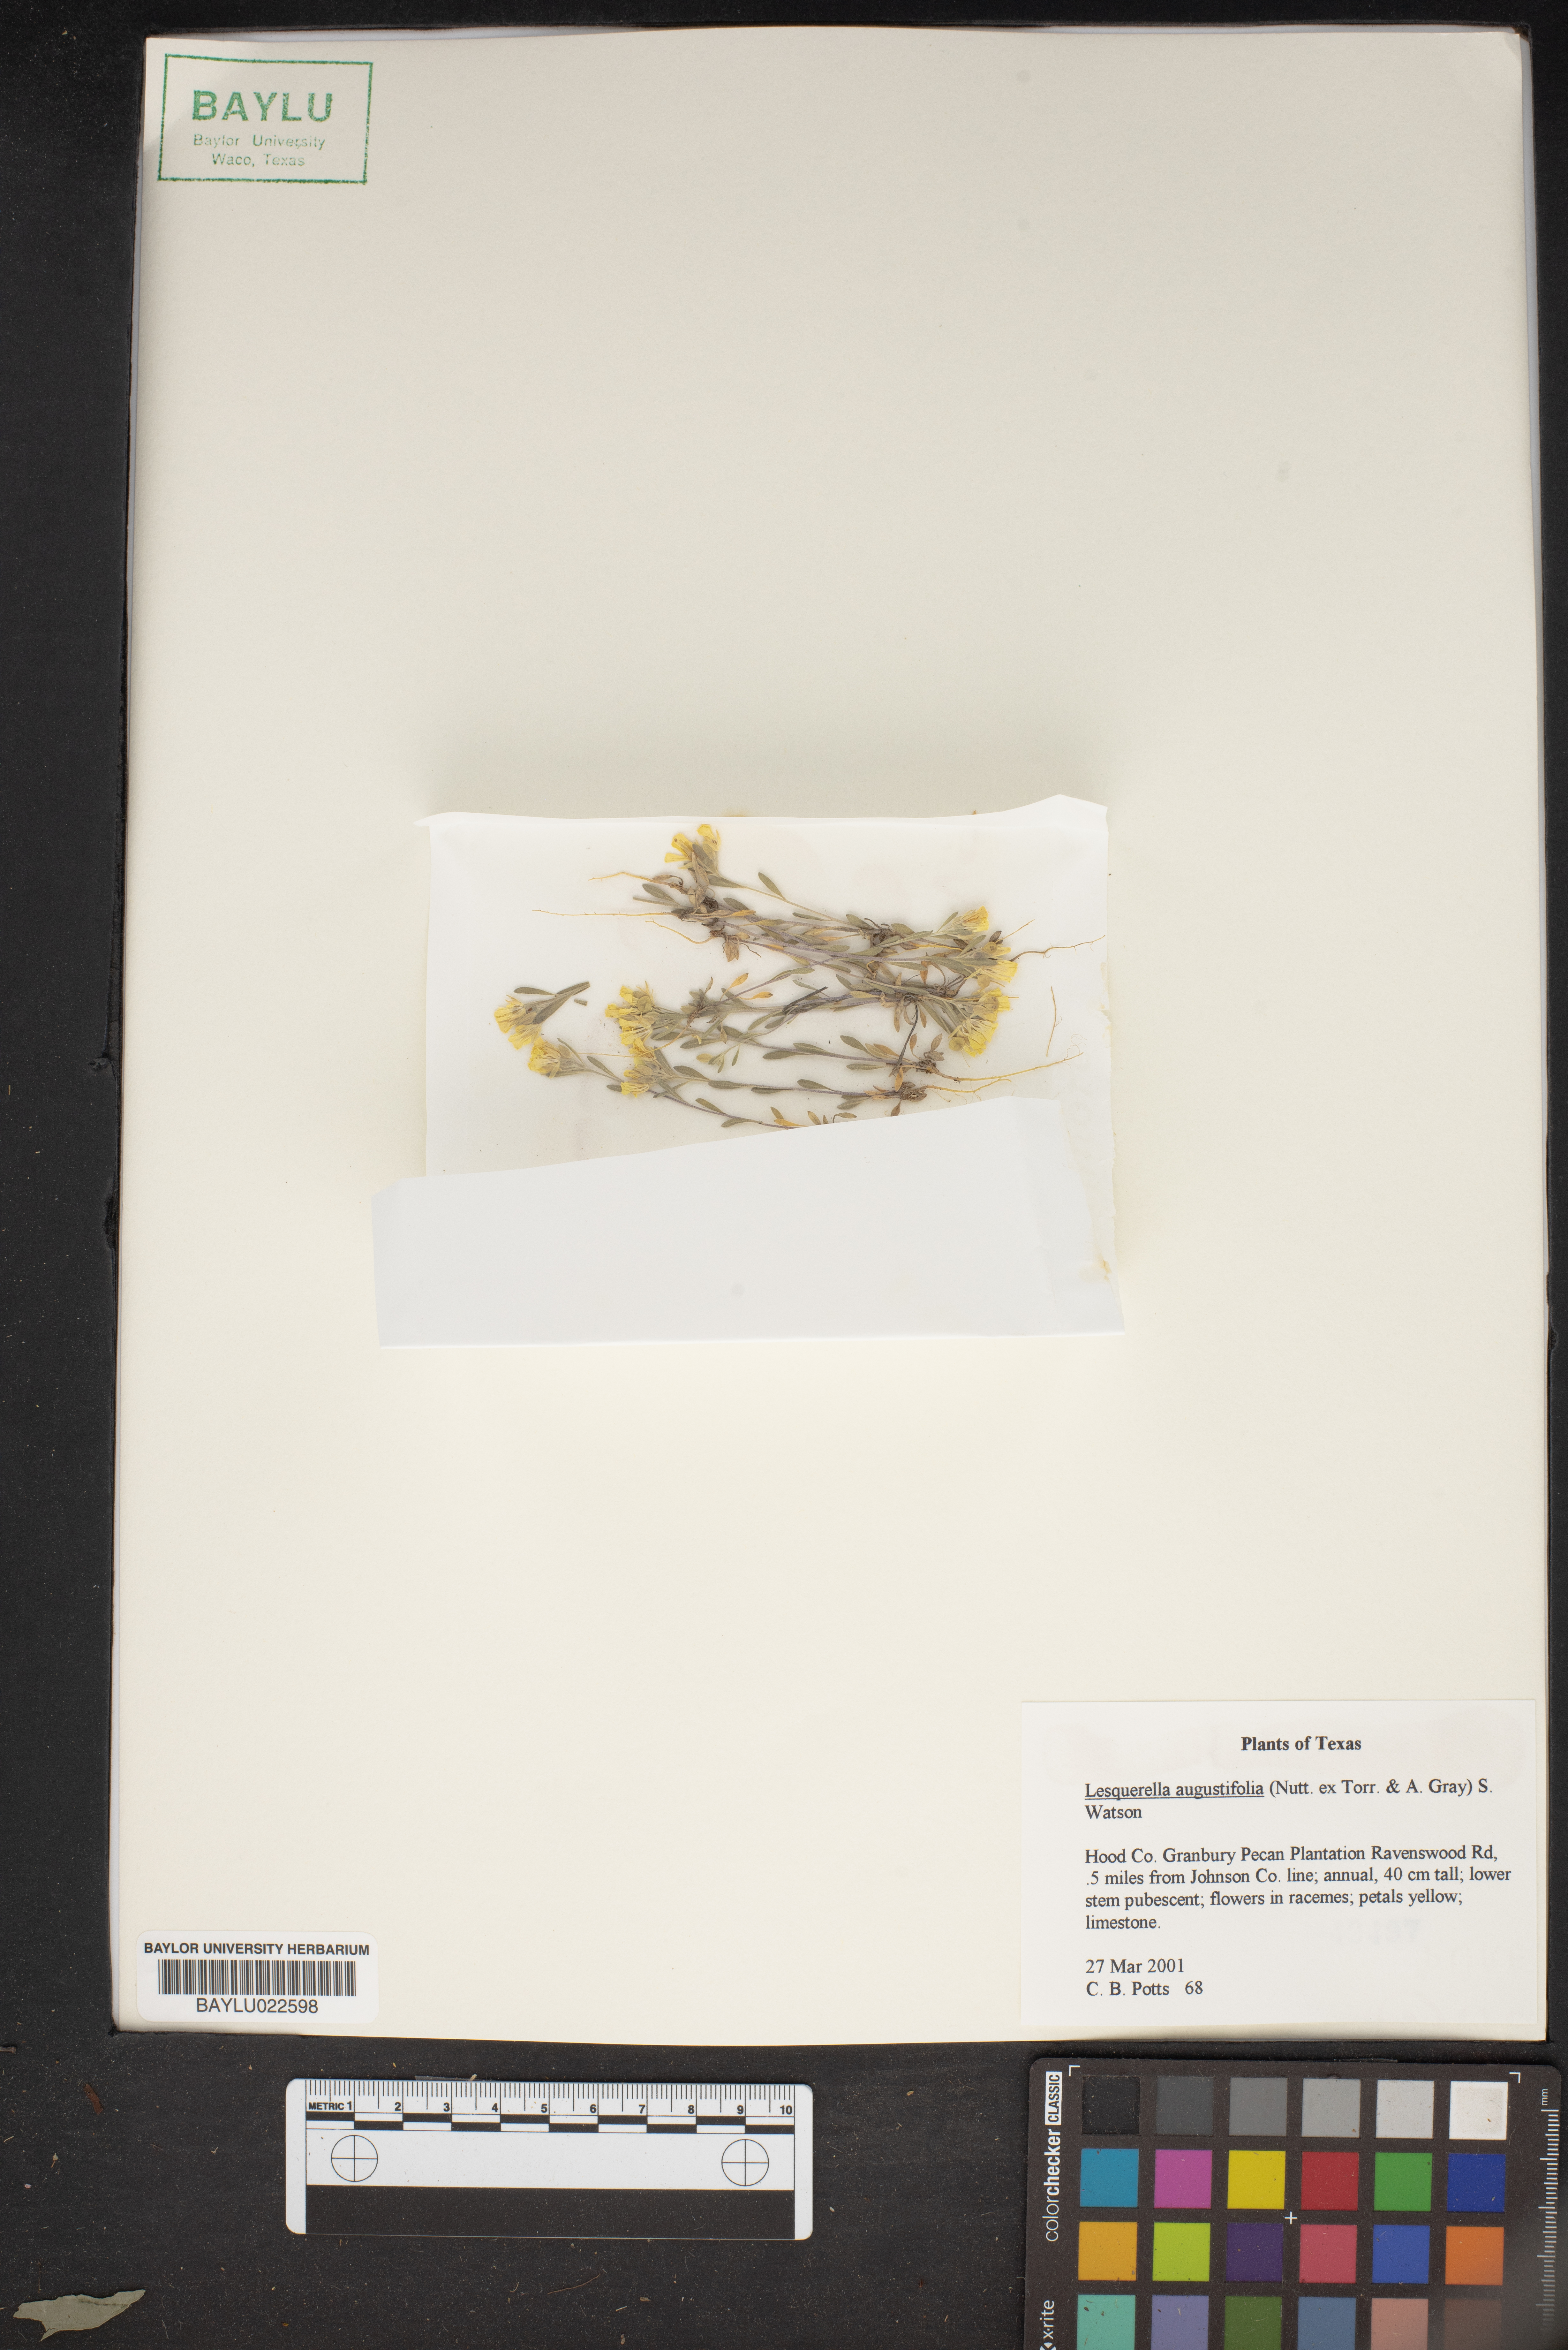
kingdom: Plantae
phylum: Tracheophyta
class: Magnoliopsida
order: Brassicales
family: Brassicaceae
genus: Physaria
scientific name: Physaria angustifolia
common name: Threadleaf bladderpod
